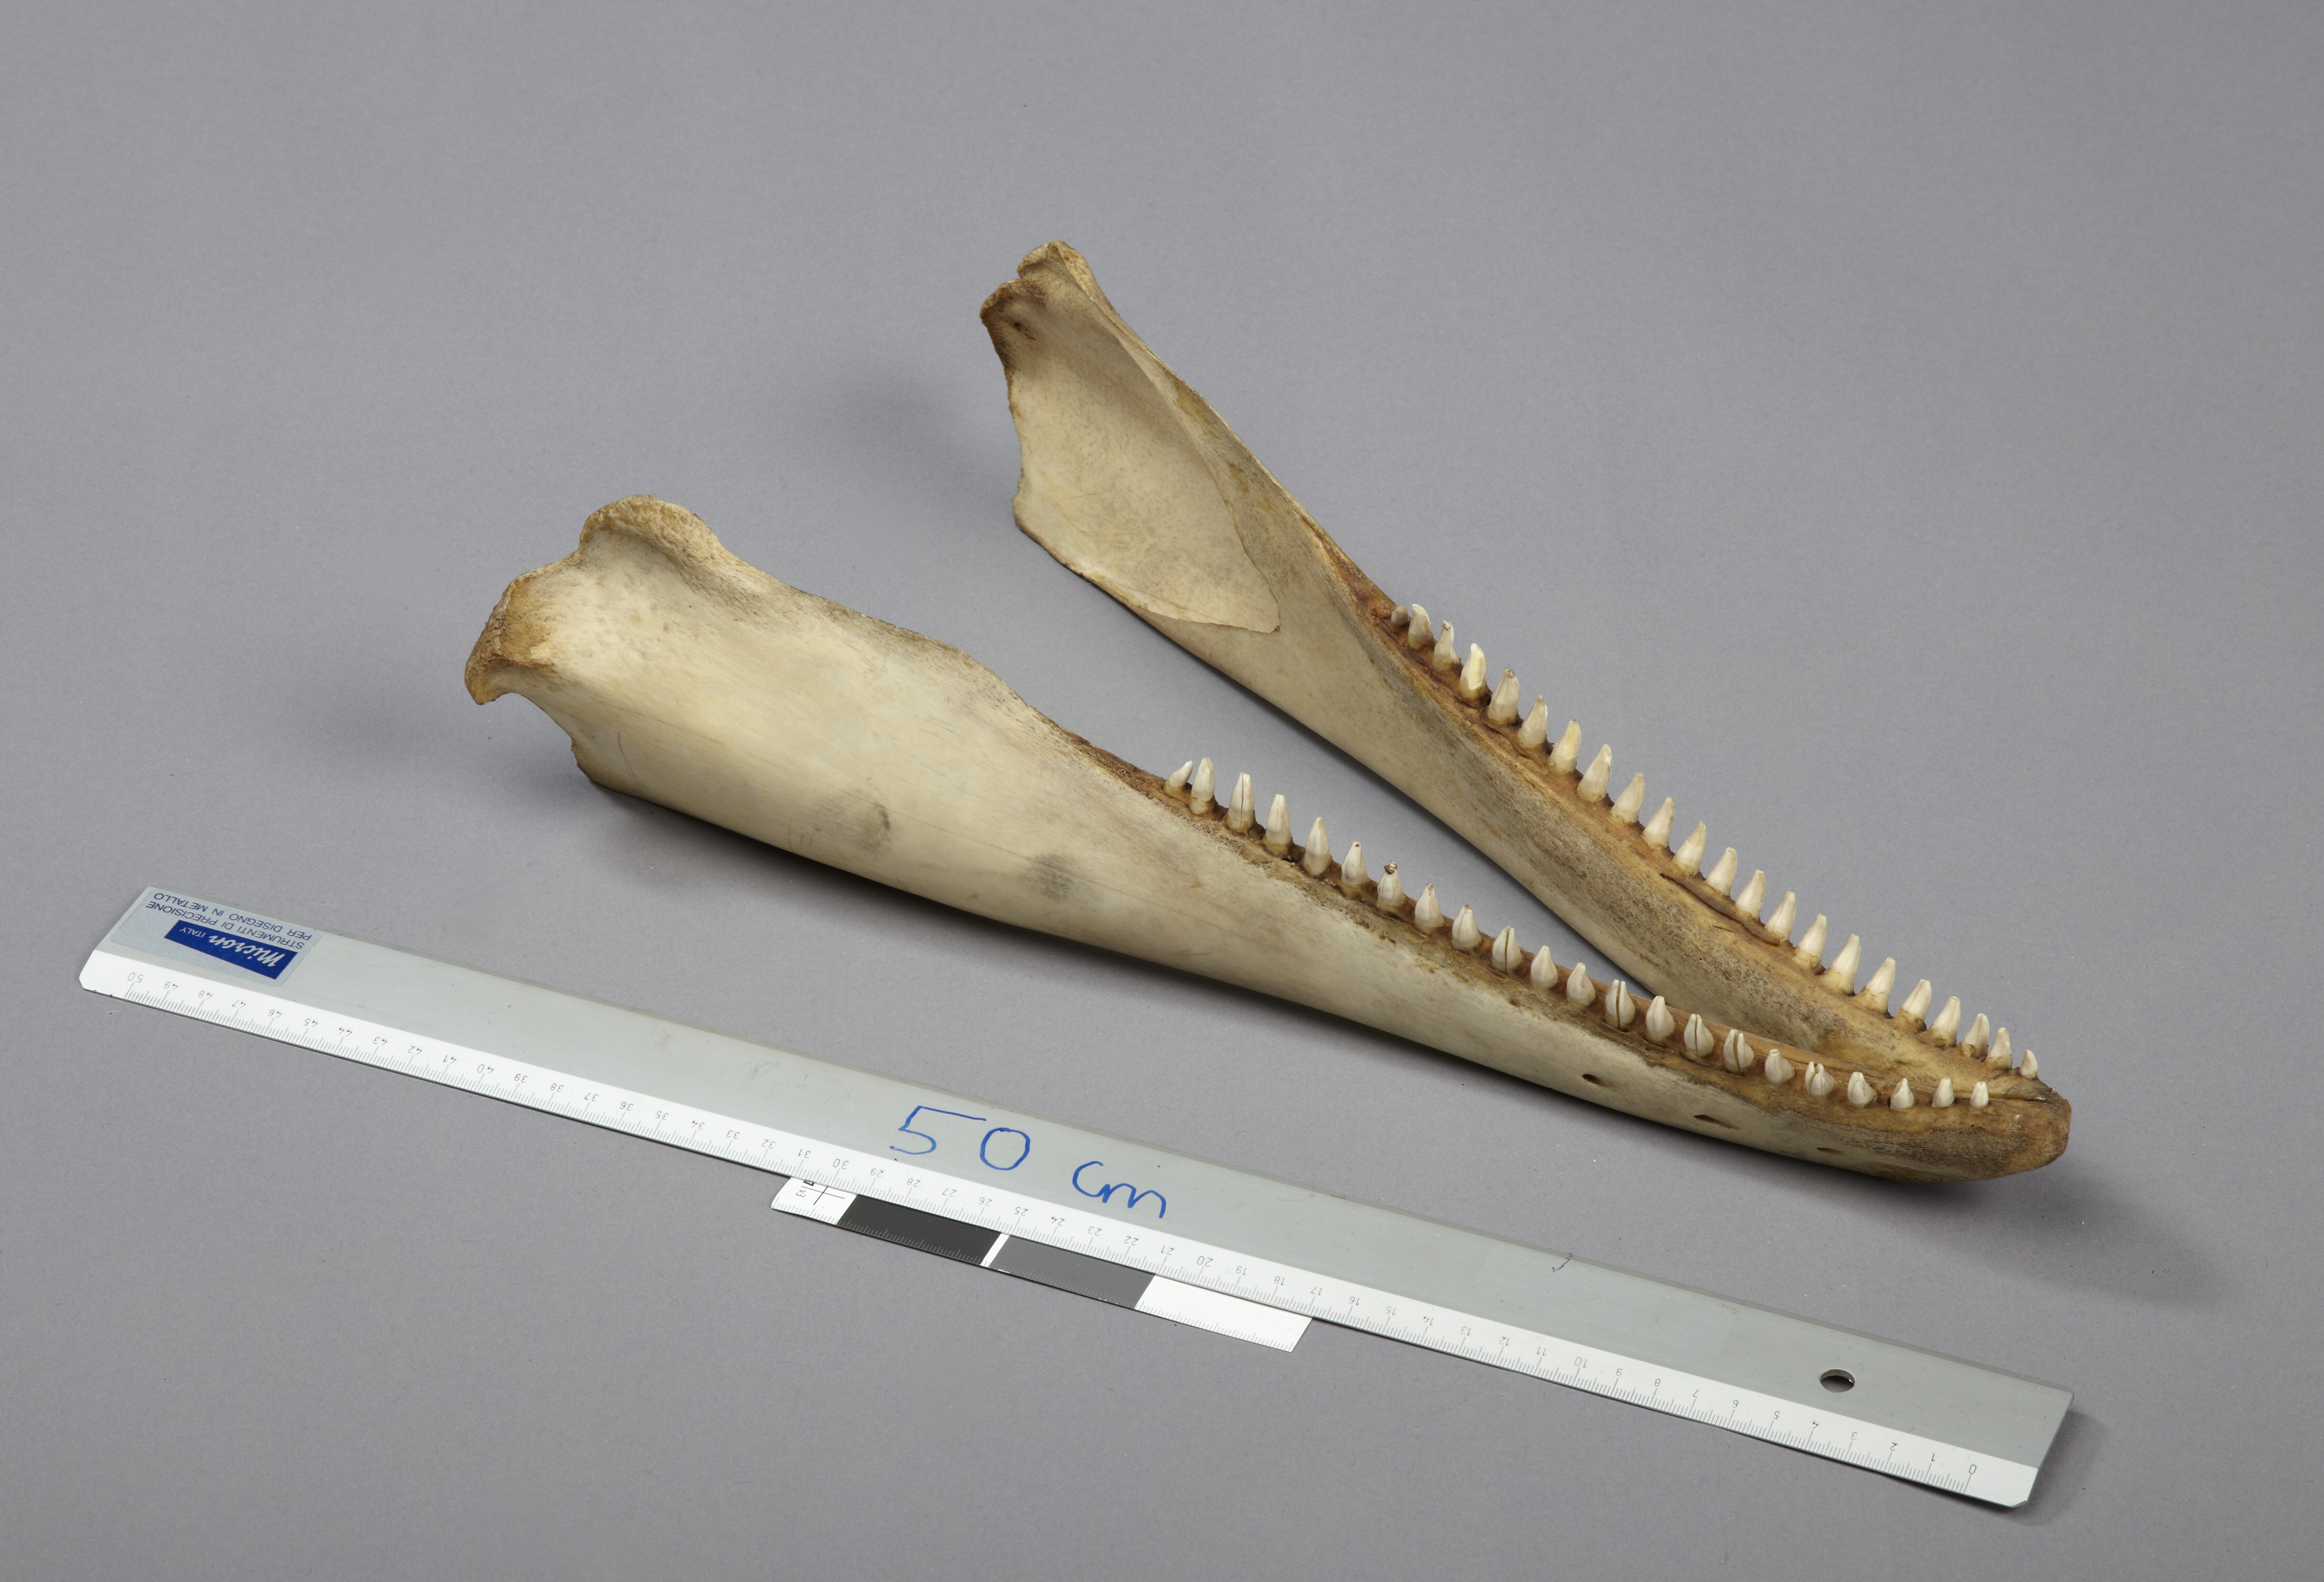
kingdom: Animalia
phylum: Chordata
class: Mammalia
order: Cetacea
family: Delphinidae
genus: Lagenorhynchus
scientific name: Lagenorhynchus albirostris
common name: White-beaked dolphin
